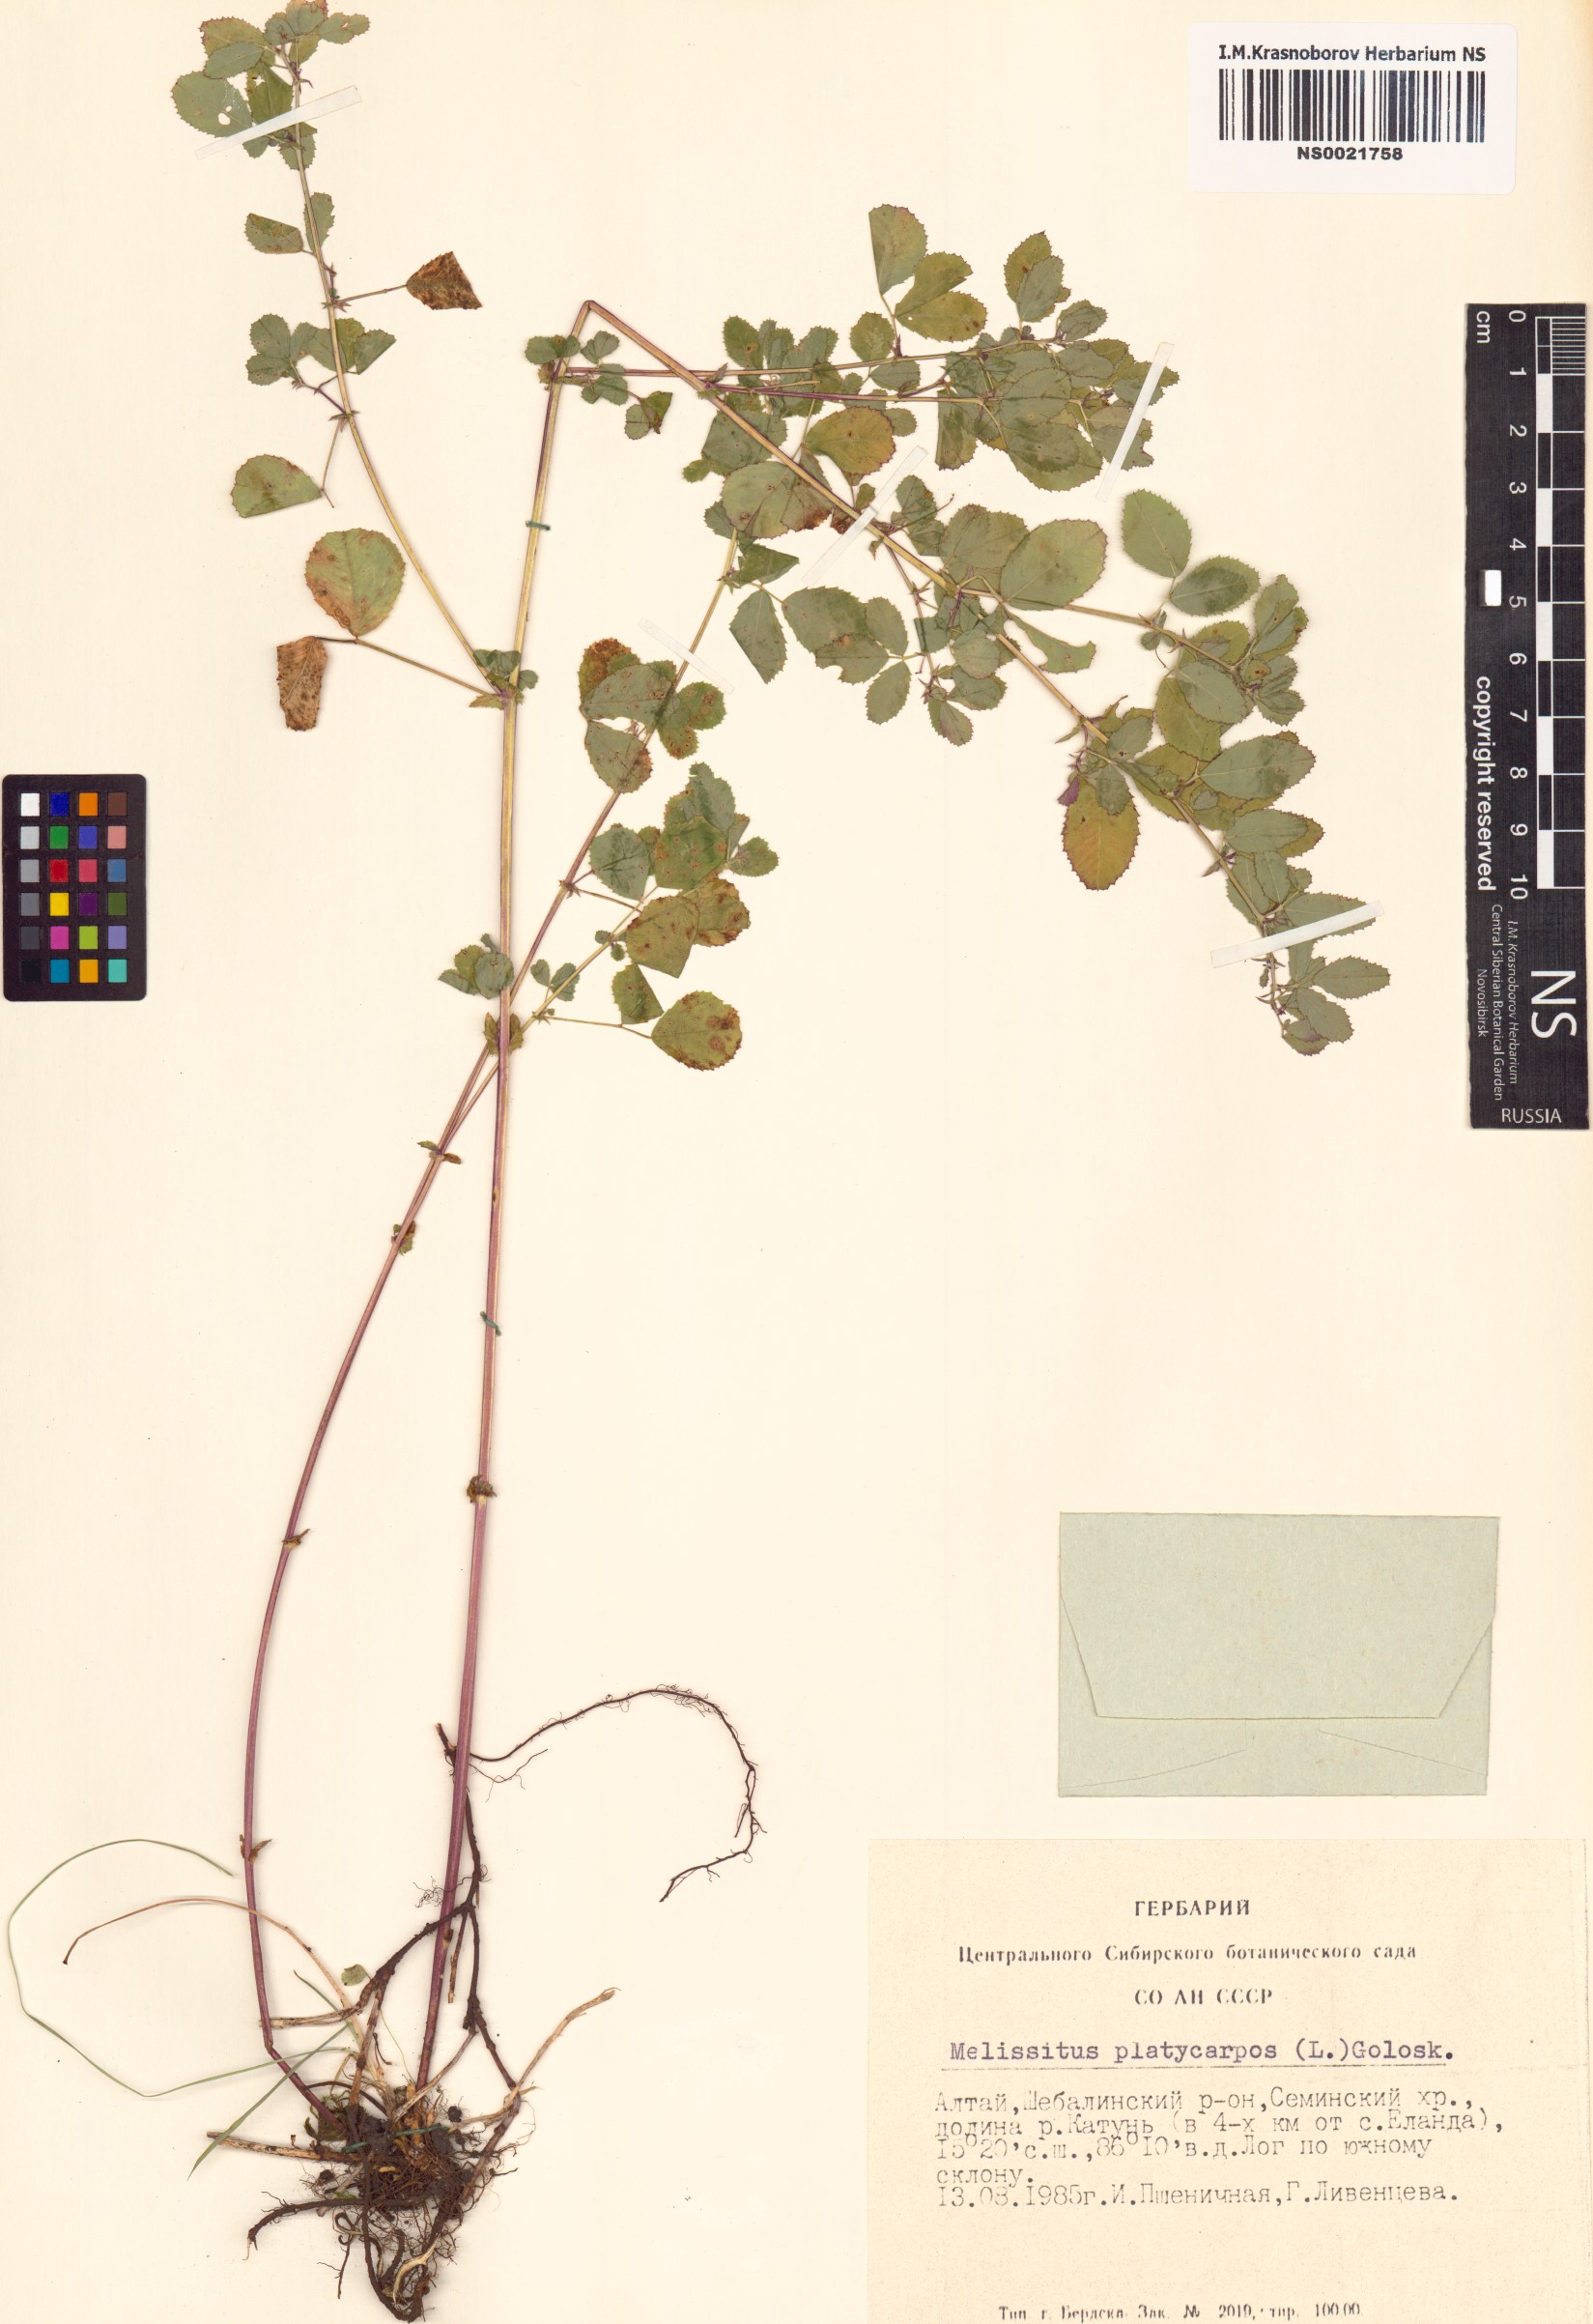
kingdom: Plantae
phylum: Tracheophyta
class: Magnoliopsida
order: Fabales
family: Fabaceae
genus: Medicago
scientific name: Medicago platycarpos
